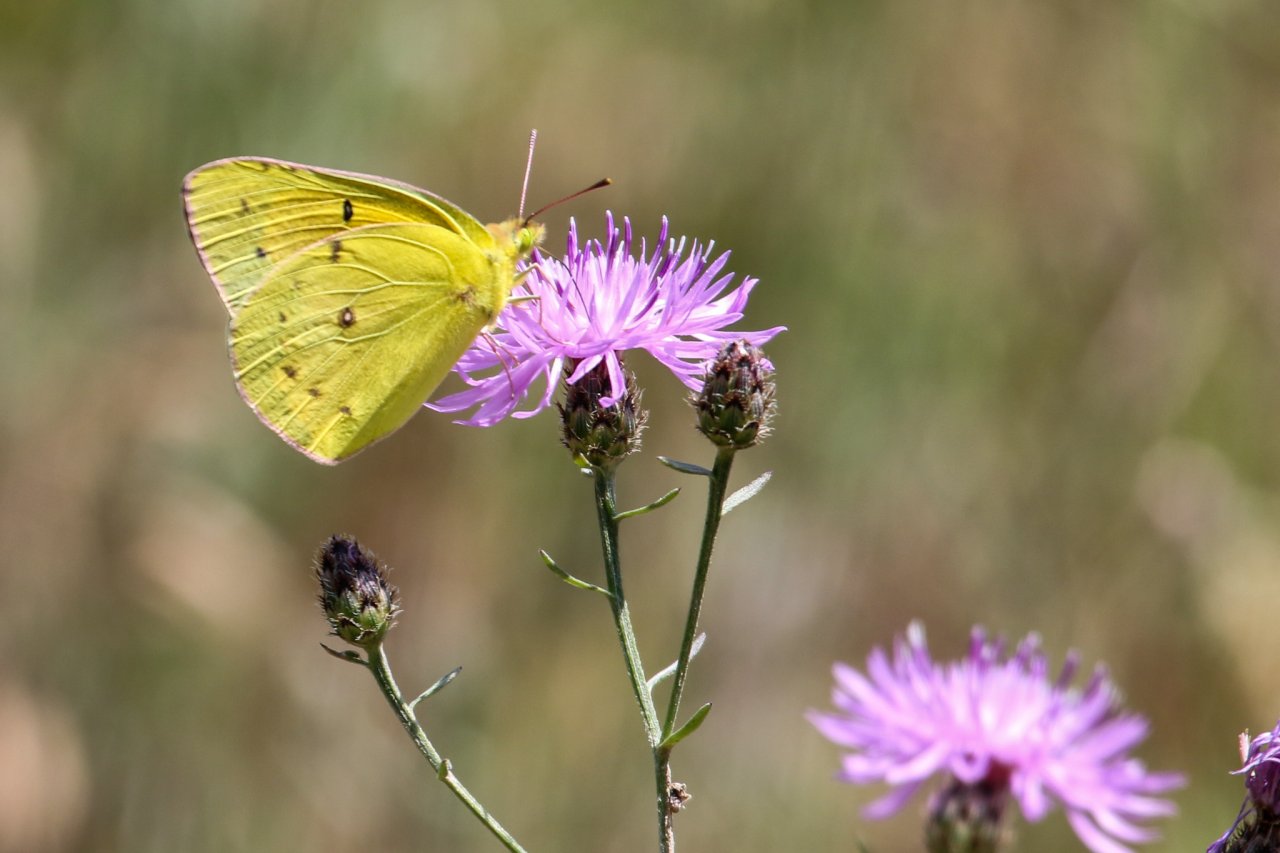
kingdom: Animalia
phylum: Arthropoda
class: Insecta
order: Lepidoptera
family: Pieridae
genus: Colias
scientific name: Colias eurytheme
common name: Orange Sulphur
